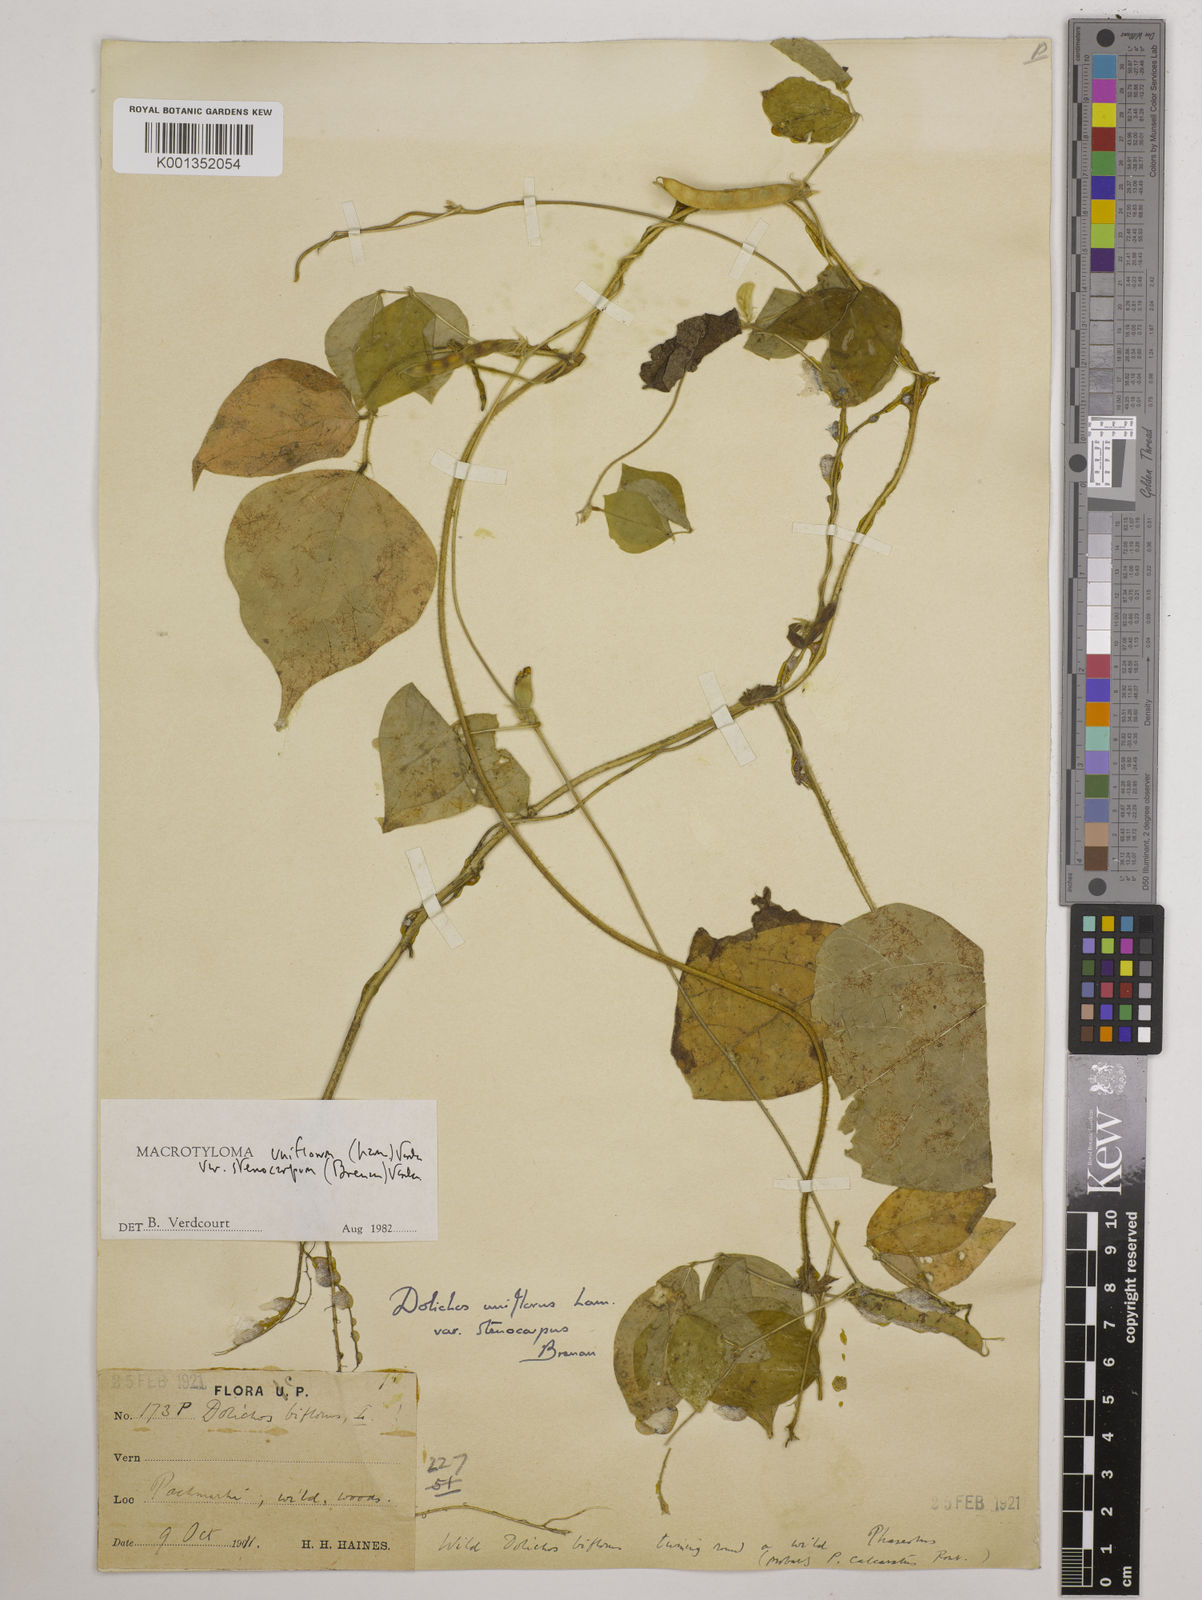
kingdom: Plantae
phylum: Tracheophyta
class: Magnoliopsida
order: Fabales
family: Fabaceae
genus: Macrotyloma
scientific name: Macrotyloma
